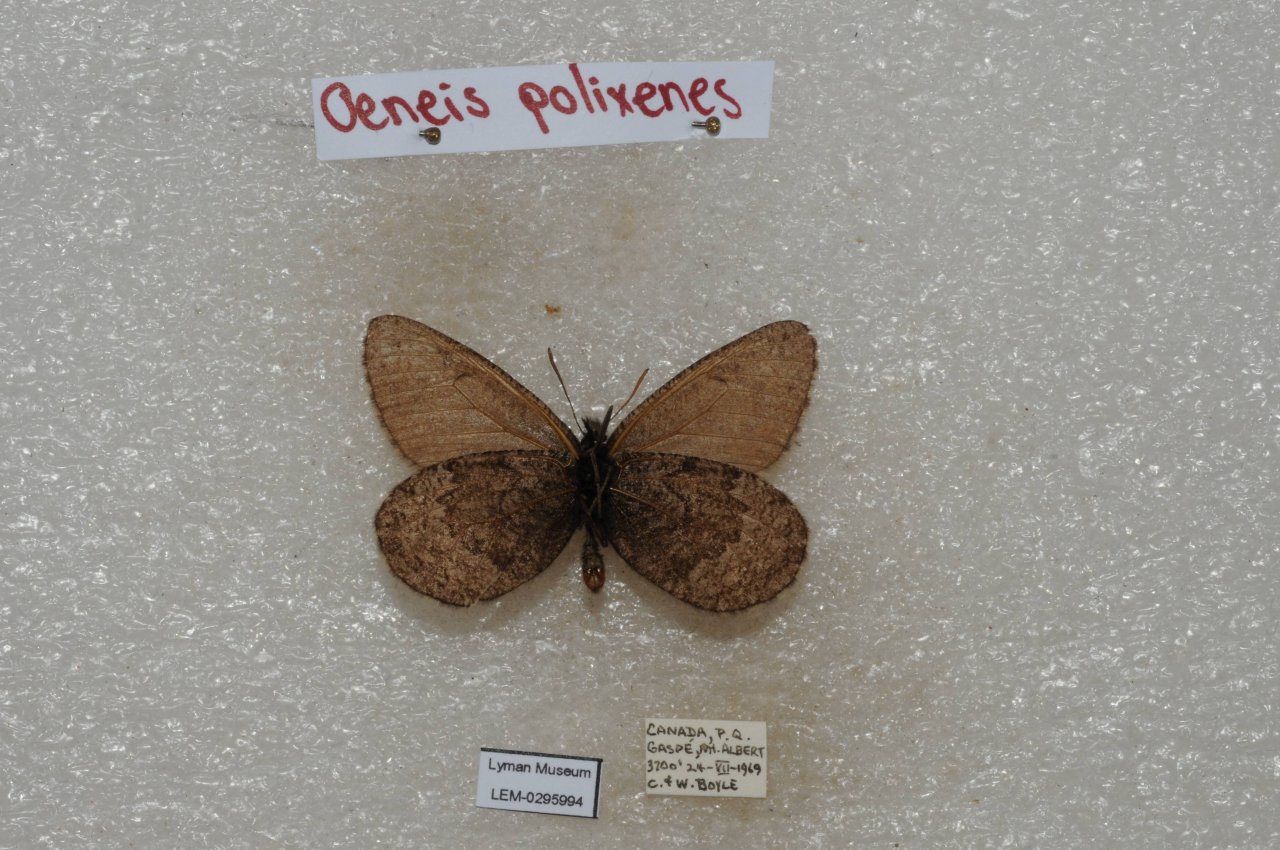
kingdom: Animalia
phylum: Arthropoda
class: Insecta
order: Lepidoptera
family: Nymphalidae
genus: Oeneis
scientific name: Oeneis bore
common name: Polixenes Arctic
